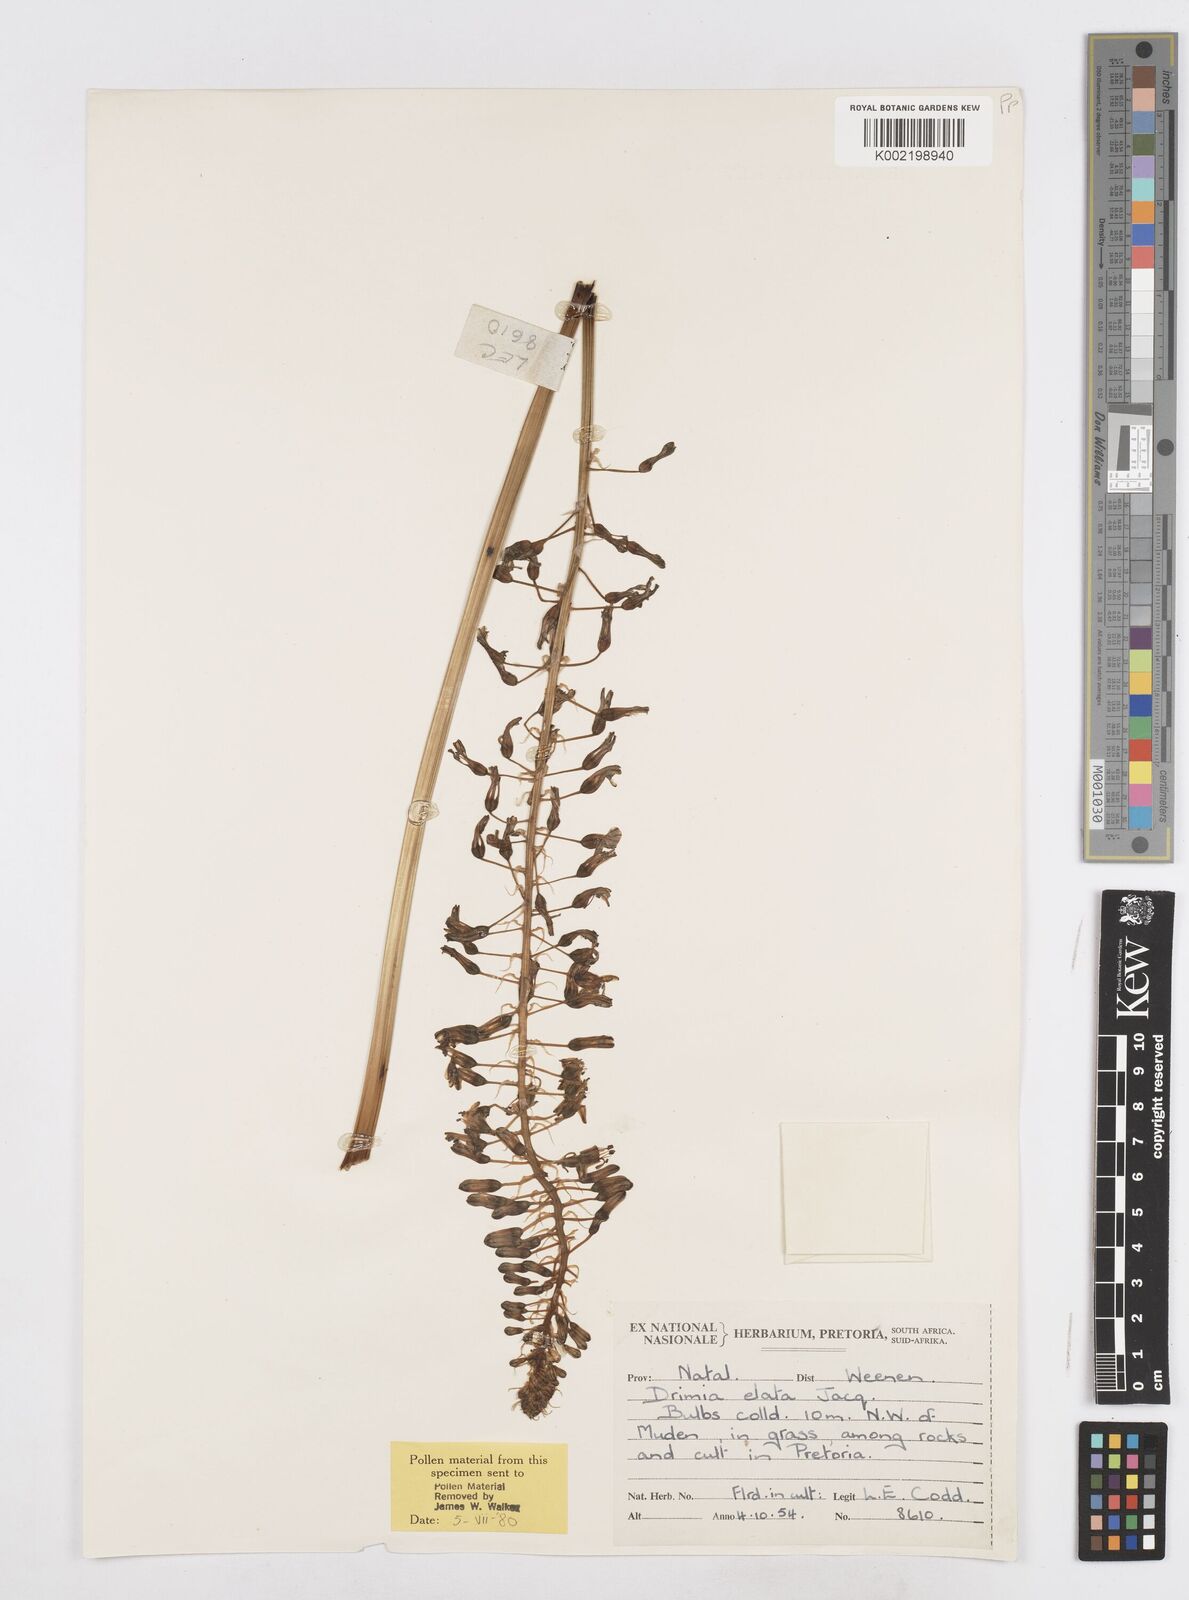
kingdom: Plantae
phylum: Tracheophyta
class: Liliopsida
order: Asparagales
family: Asparagaceae
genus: Drimia
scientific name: Drimia elata
